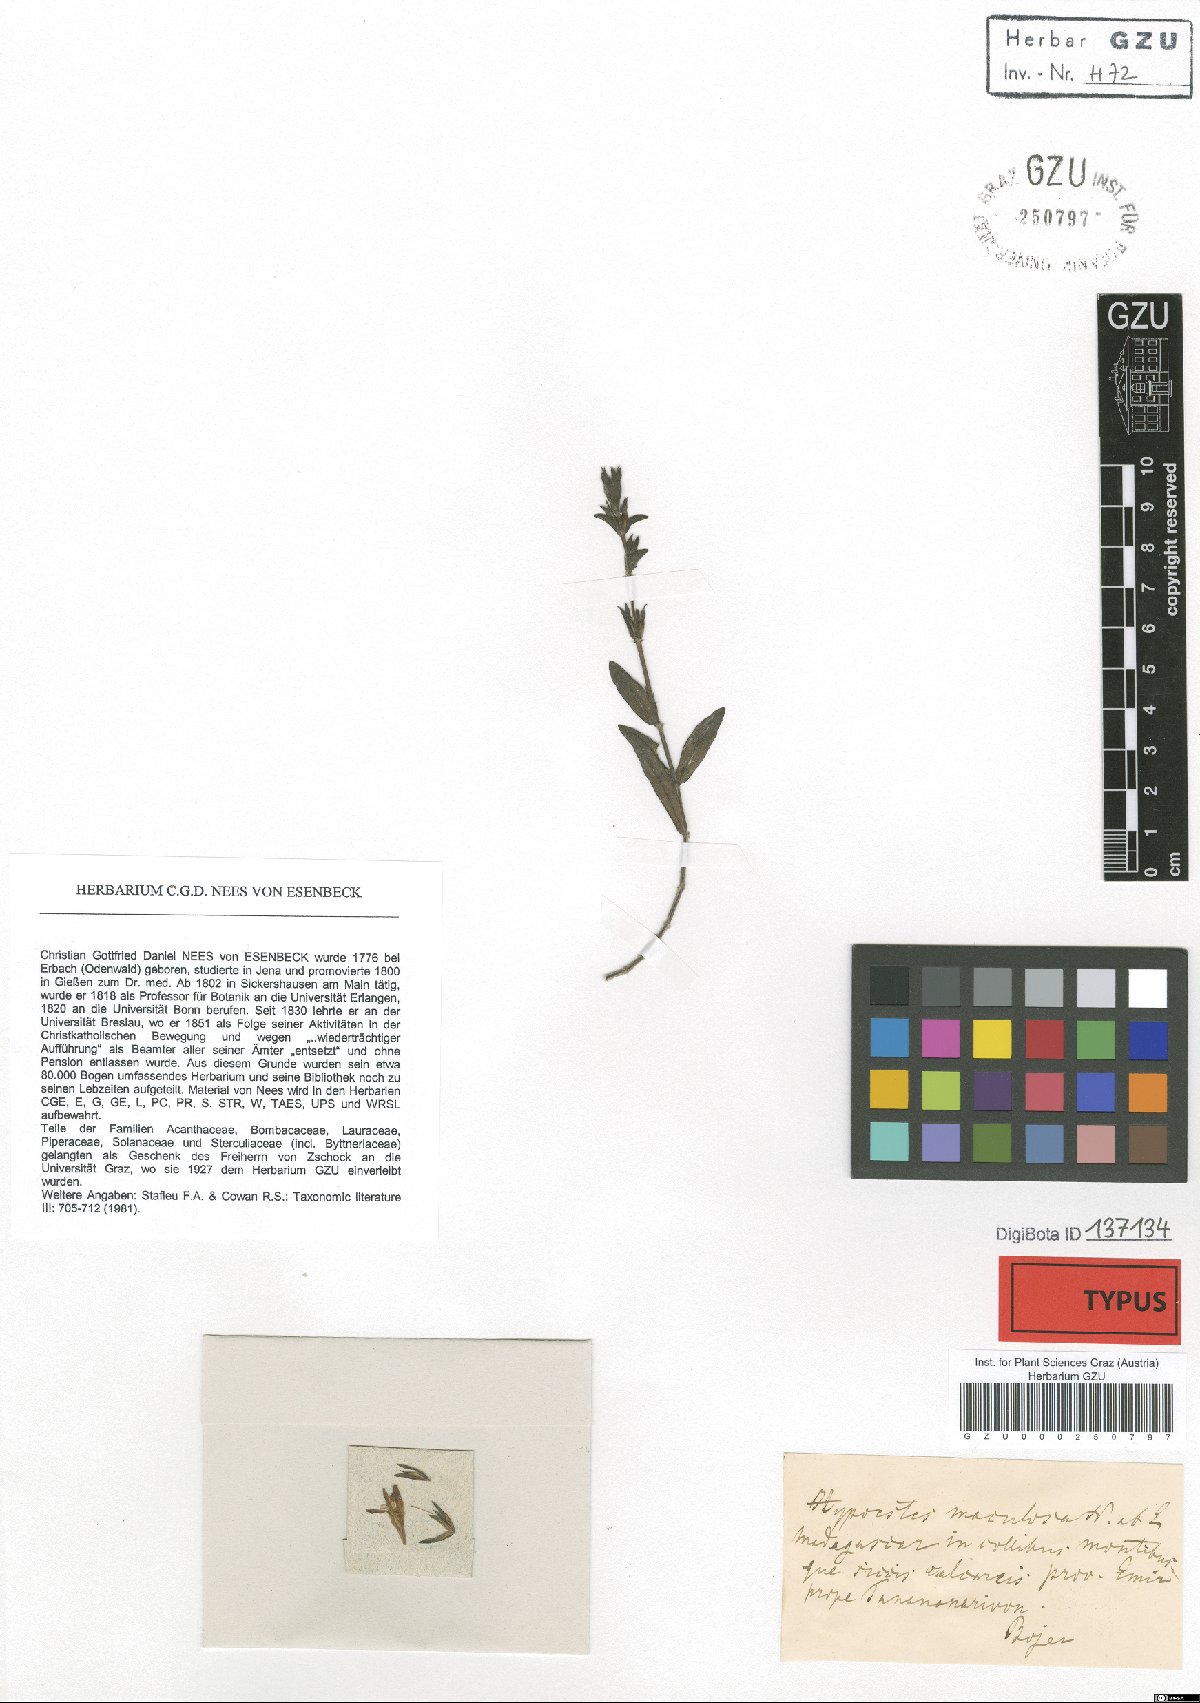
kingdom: Plantae
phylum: Tracheophyta
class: Magnoliopsida
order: Lamiales
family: Acanthaceae
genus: Hypoestes
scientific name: Hypoestes maculosa
